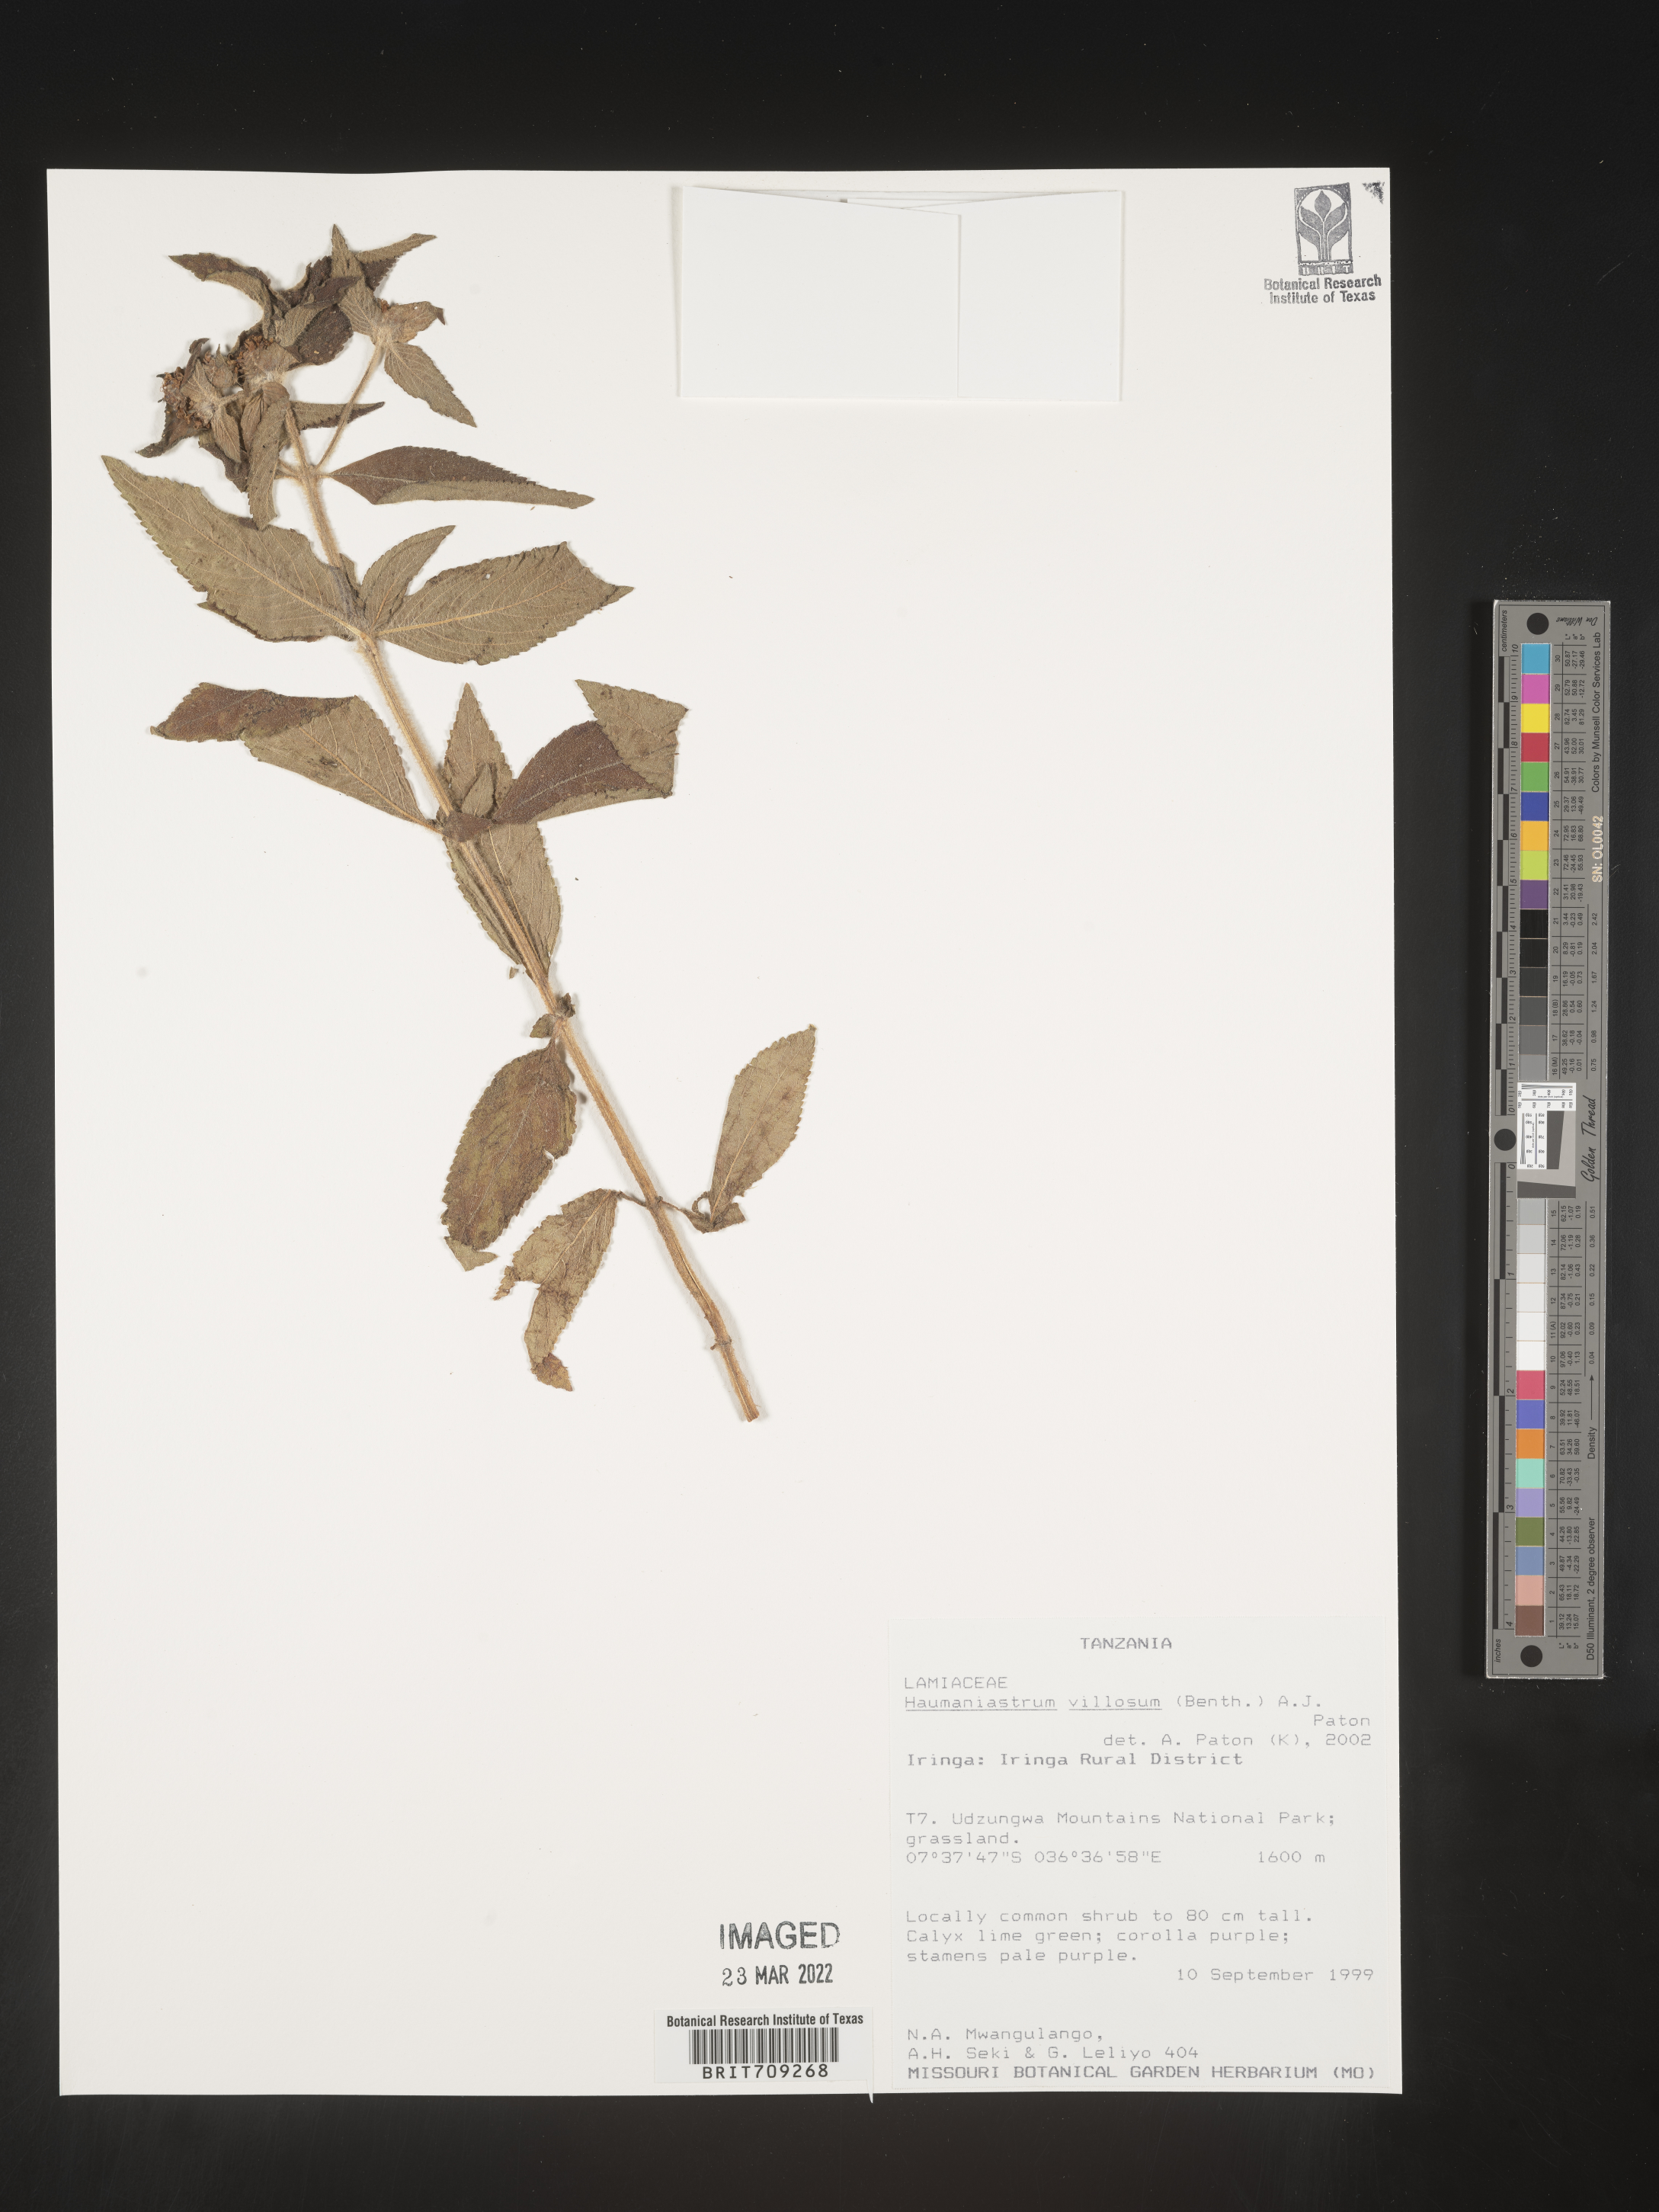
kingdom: Plantae
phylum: Tracheophyta
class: Magnoliopsida
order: Lamiales
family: Lamiaceae
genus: Haumaniastrum
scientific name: Haumaniastrum
